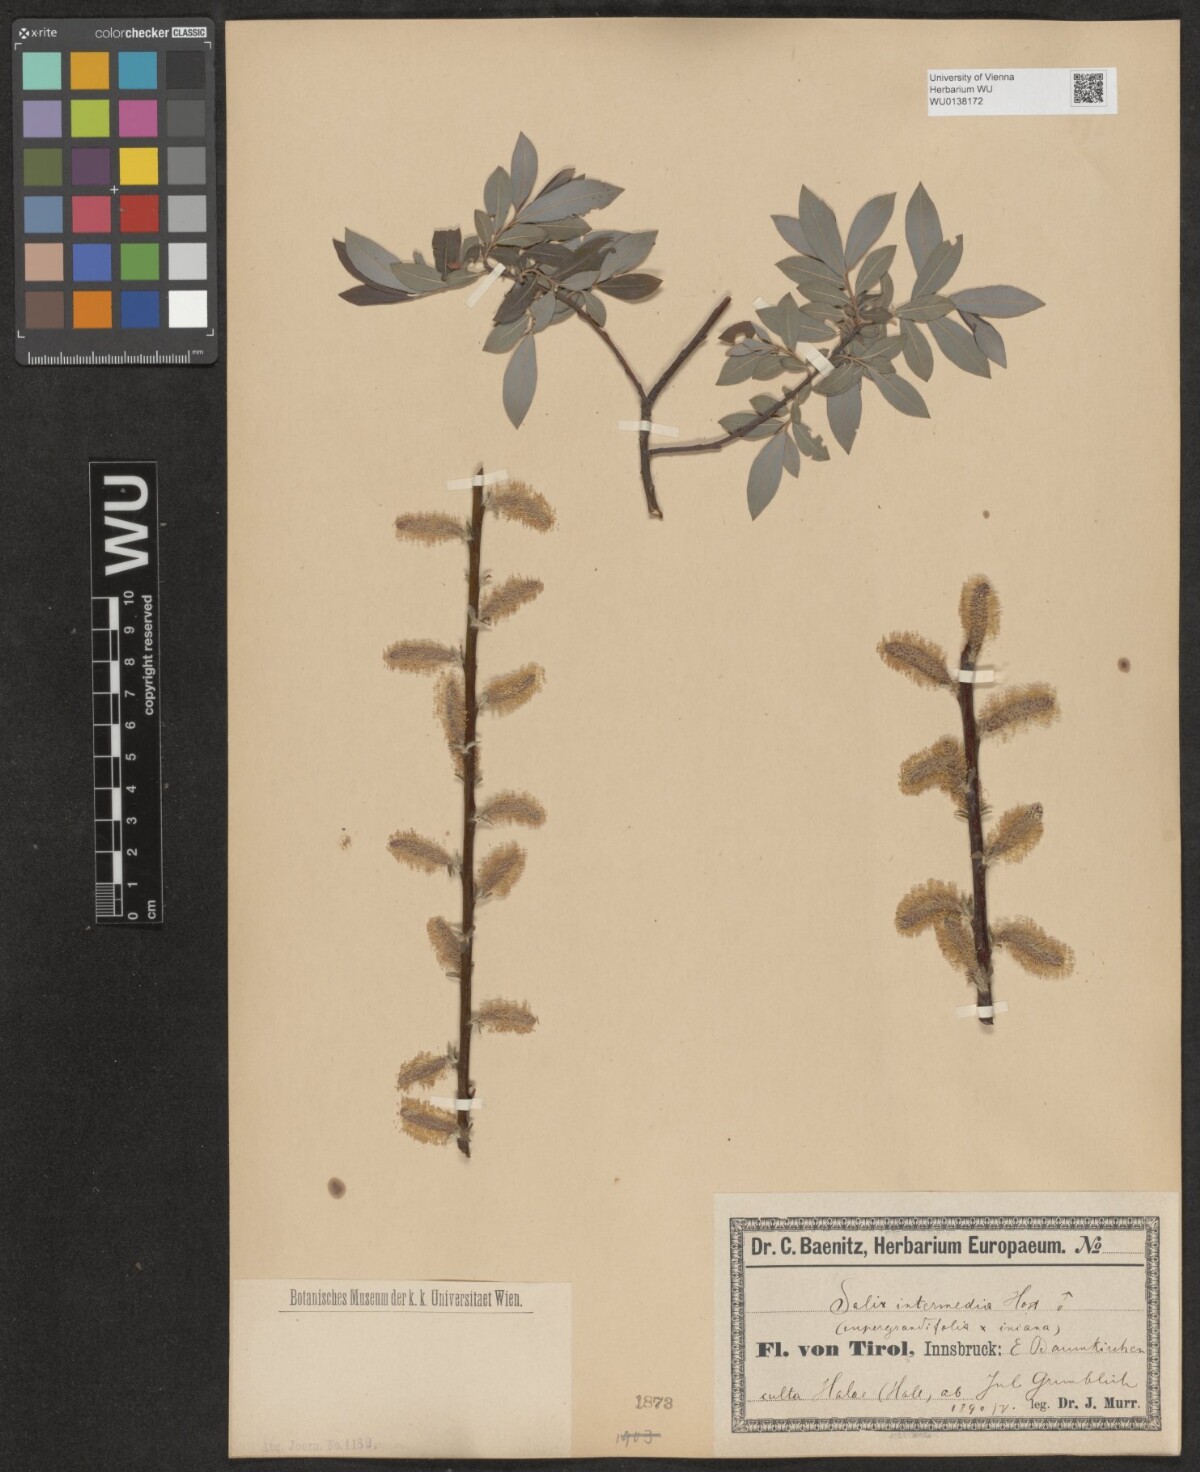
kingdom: Plantae
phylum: Tracheophyta
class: Magnoliopsida
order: Malpighiales
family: Salicaceae
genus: Salix
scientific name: Salix intermedia
